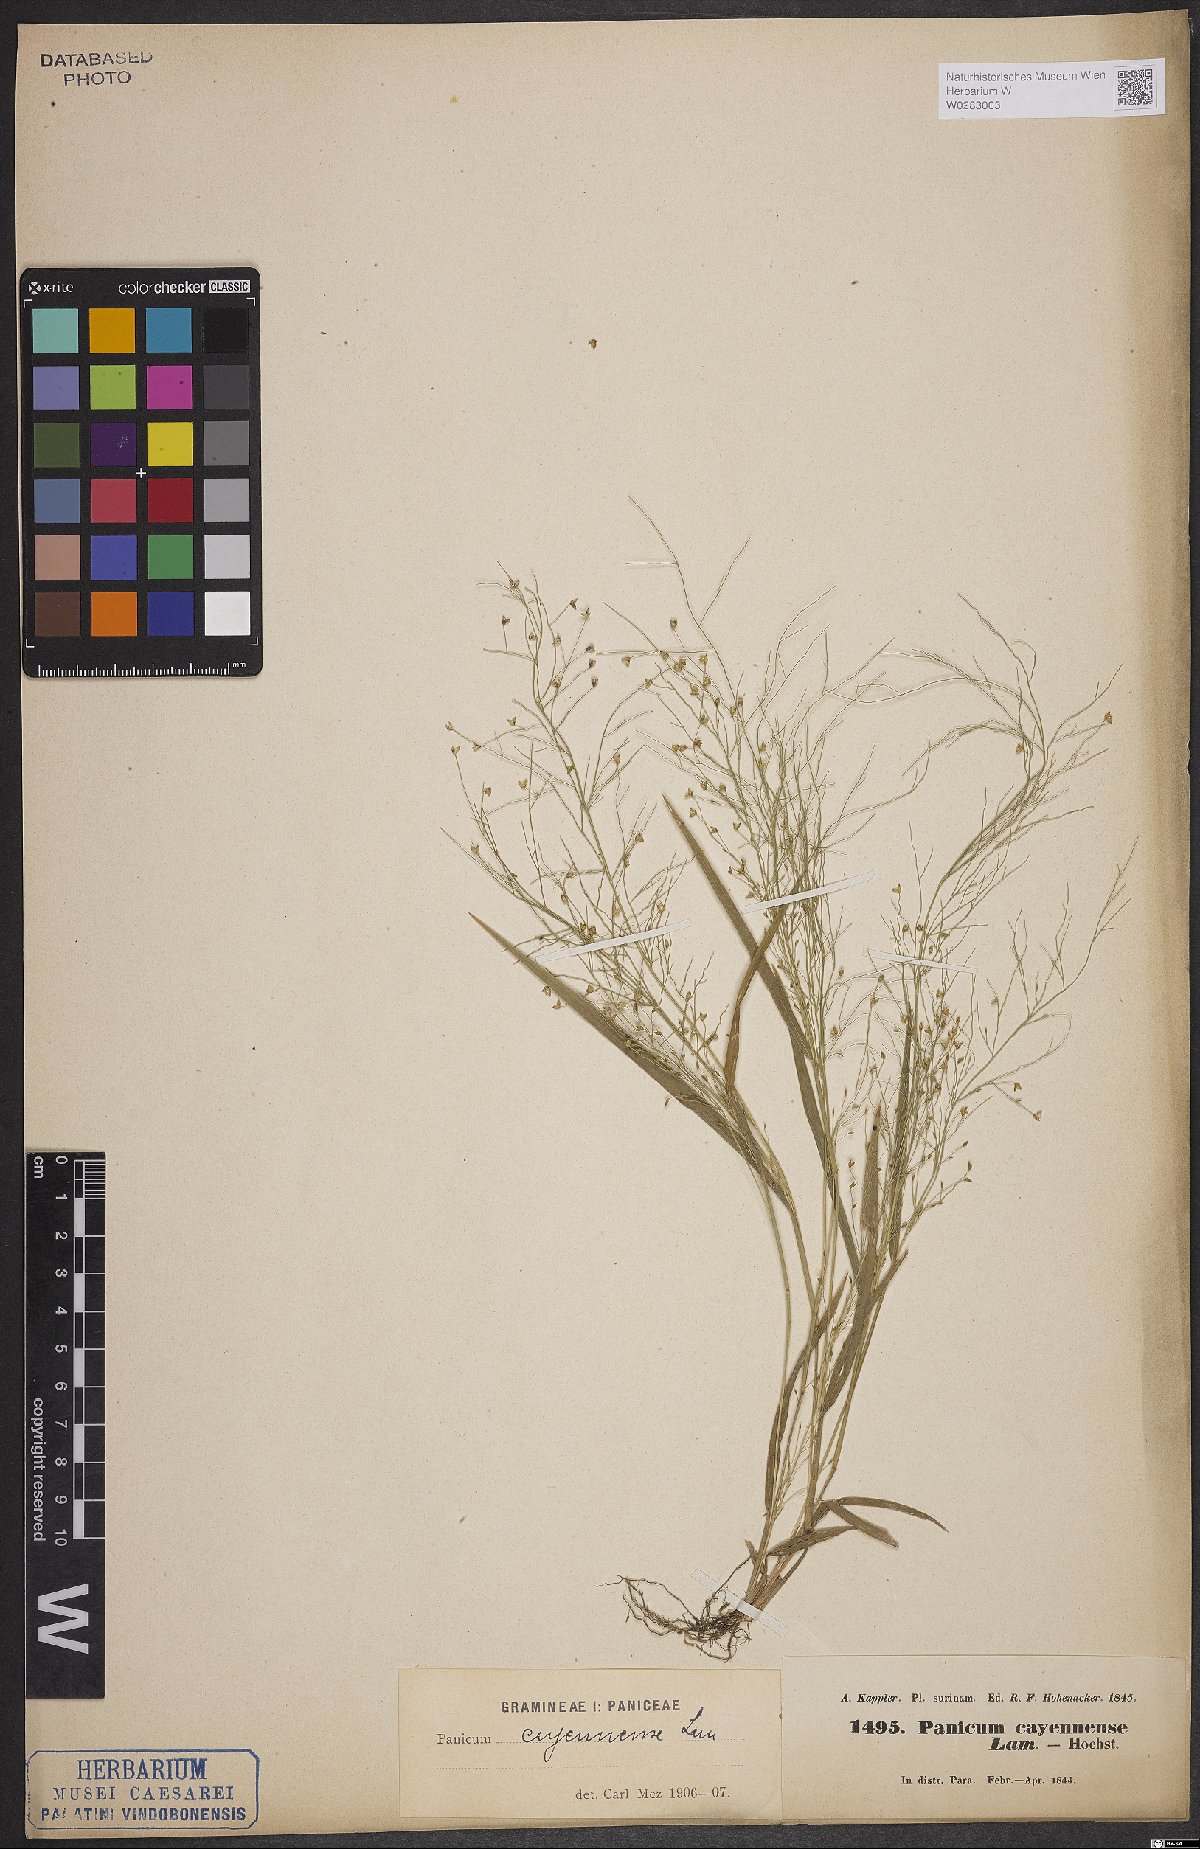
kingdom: Plantae
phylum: Tracheophyta
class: Liliopsida
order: Poales
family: Poaceae
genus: Panicum
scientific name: Panicum cayennense
